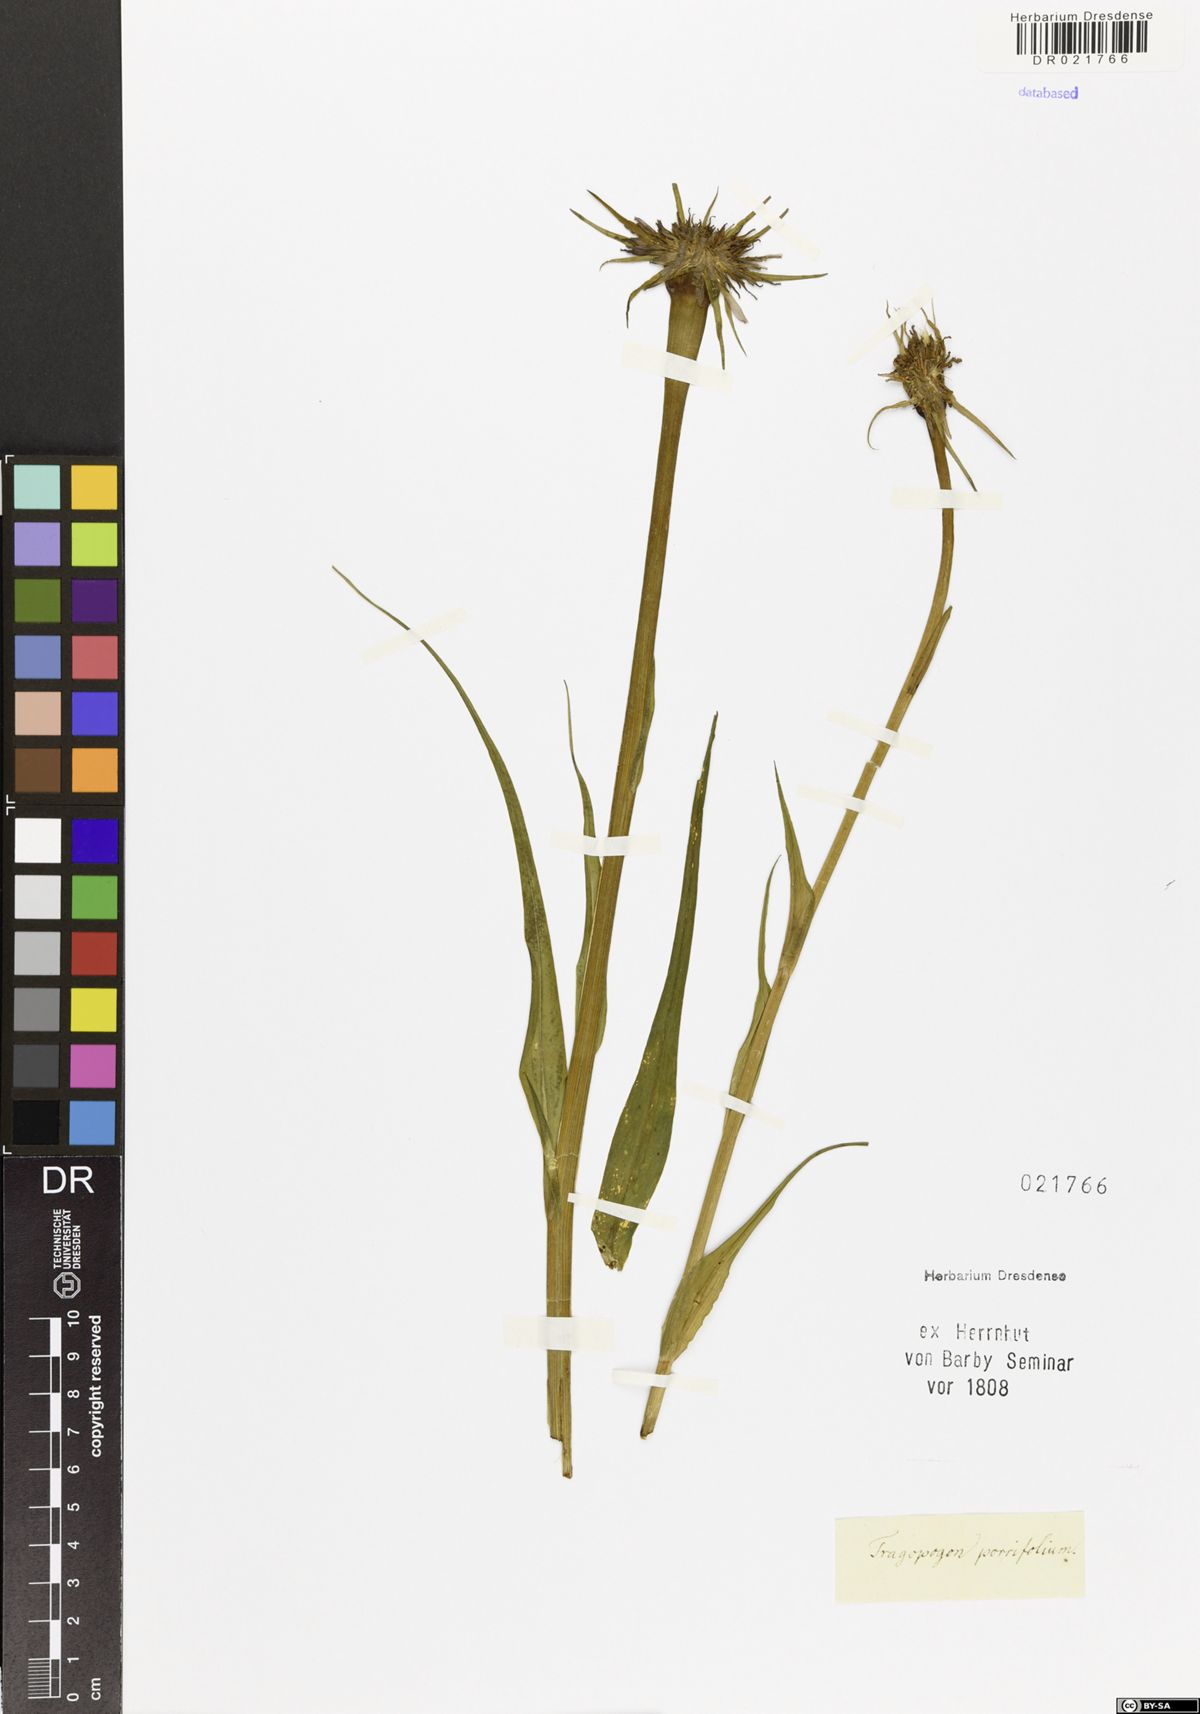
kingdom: Plantae
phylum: Tracheophyta
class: Magnoliopsida
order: Asterales
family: Asteraceae
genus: Tragopogon
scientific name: Tragopogon dubius
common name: Yellow salsify
